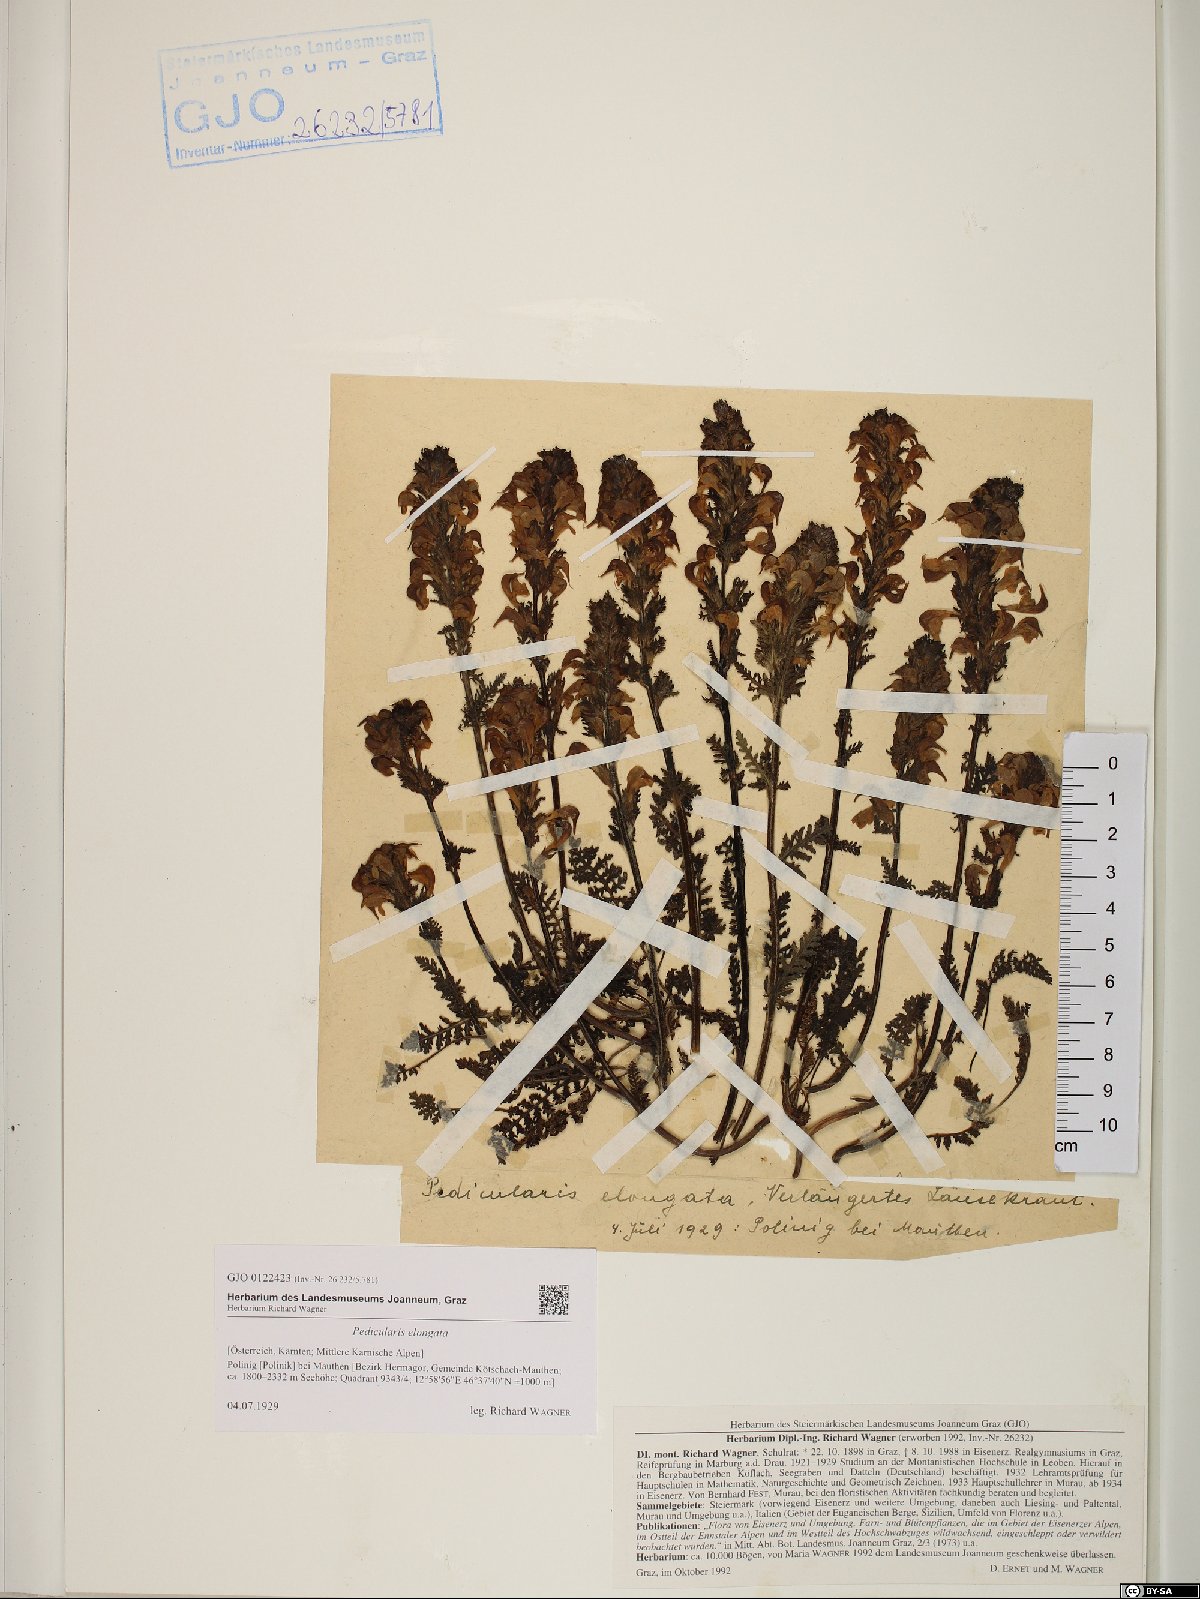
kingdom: Plantae
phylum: Tracheophyta
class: Magnoliopsida
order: Lamiales
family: Orobanchaceae
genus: Pedicularis
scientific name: Pedicularis elongata
